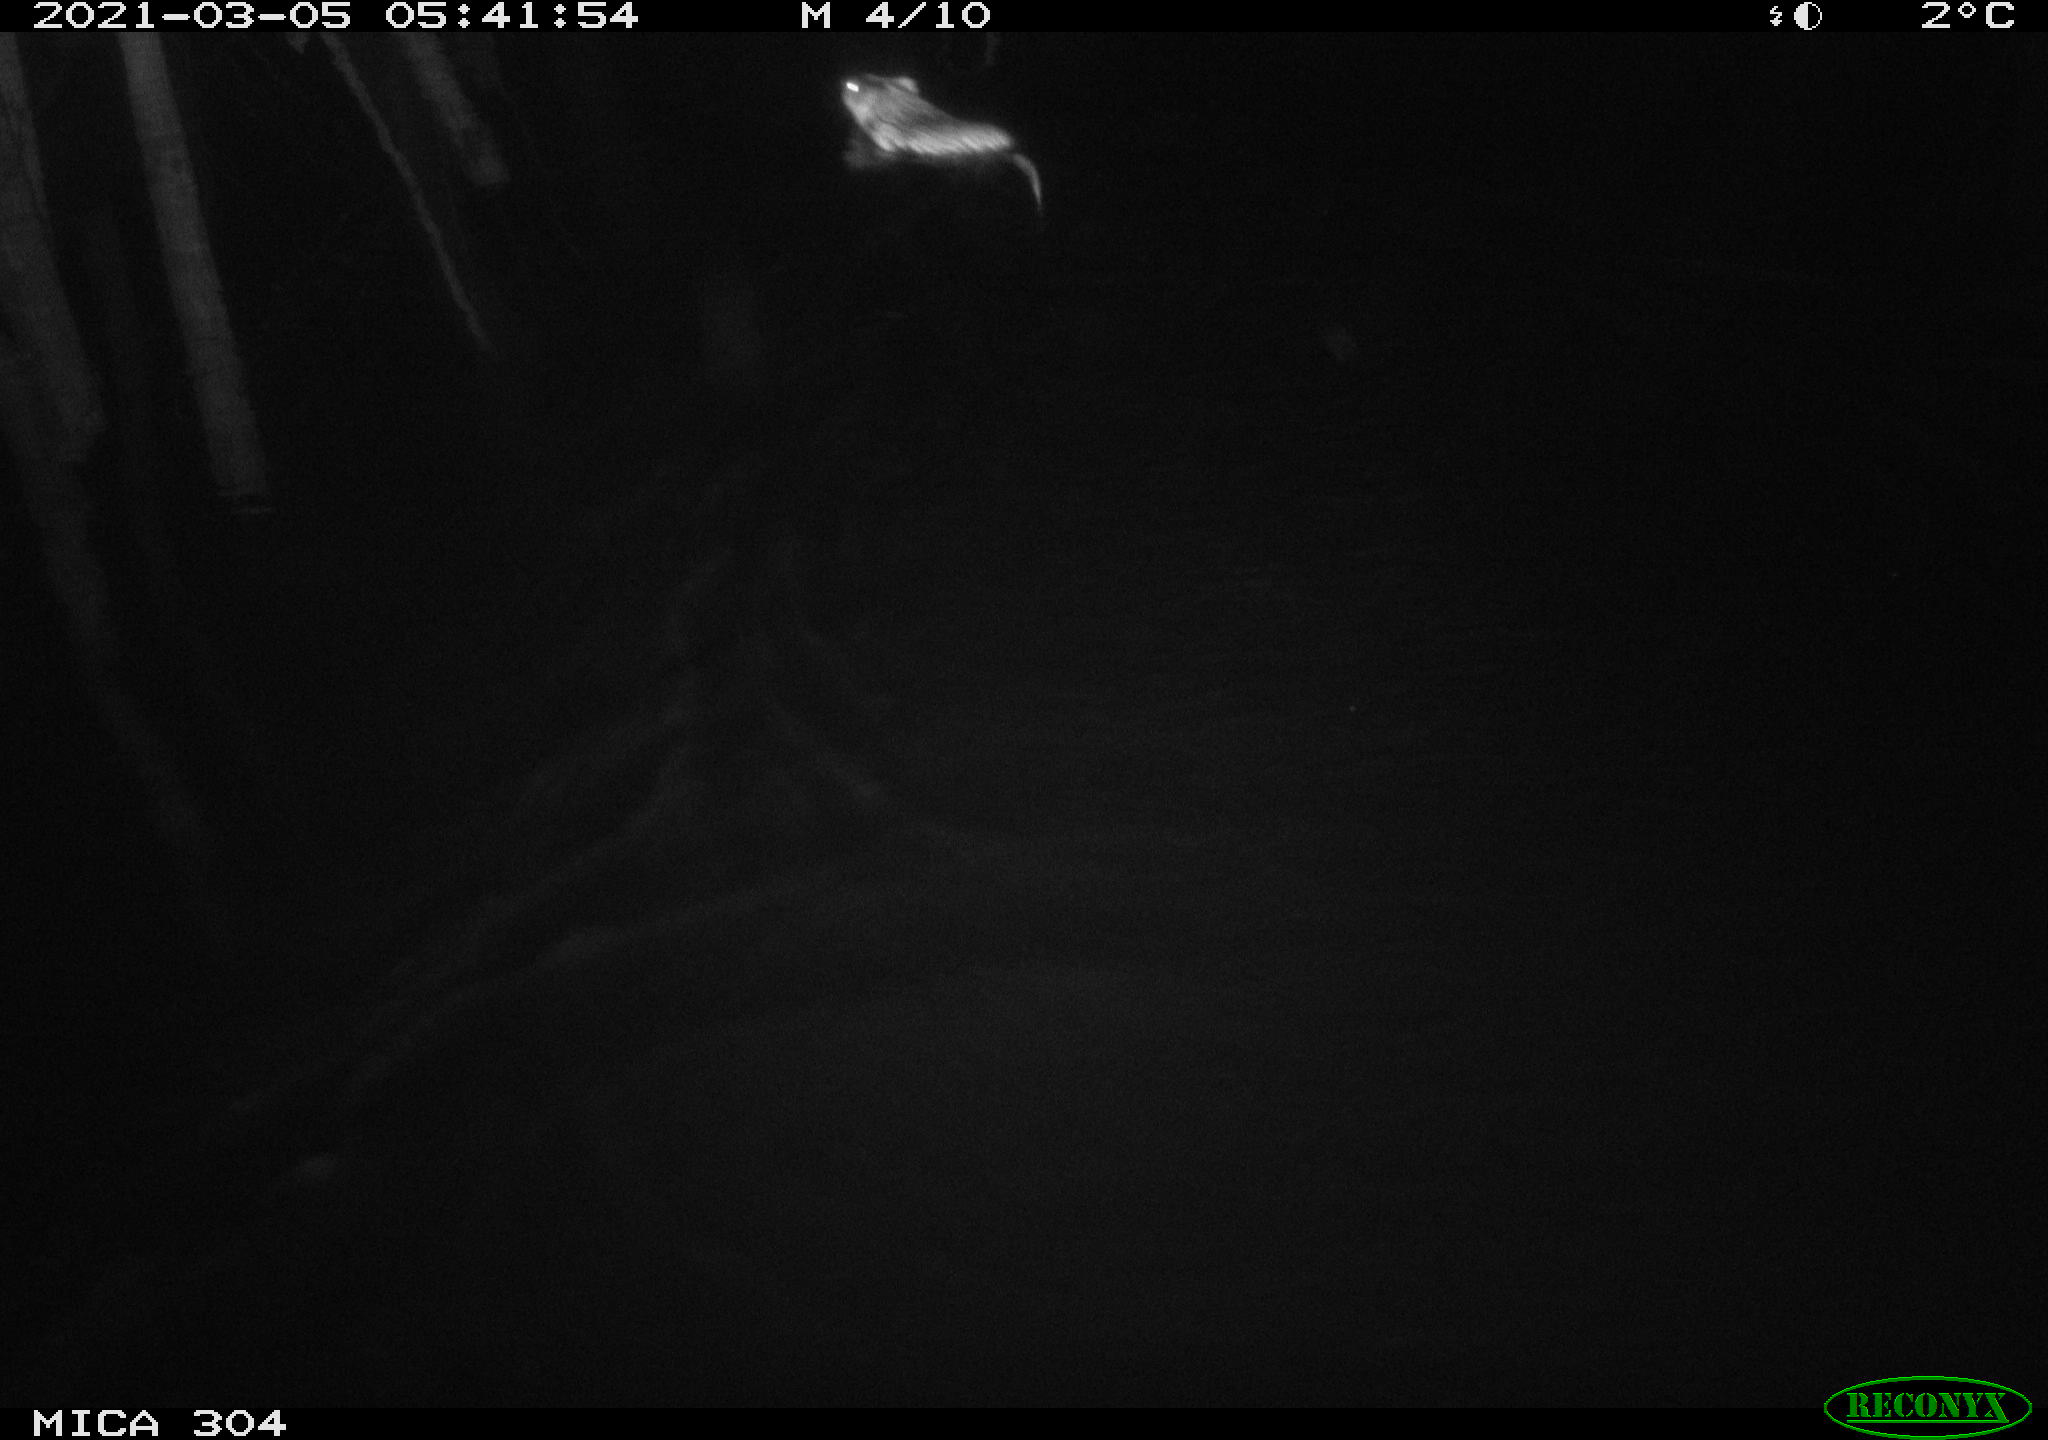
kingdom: Animalia
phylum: Chordata
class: Mammalia
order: Rodentia
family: Cricetidae
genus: Ondatra
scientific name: Ondatra zibethicus
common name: Muskrat
